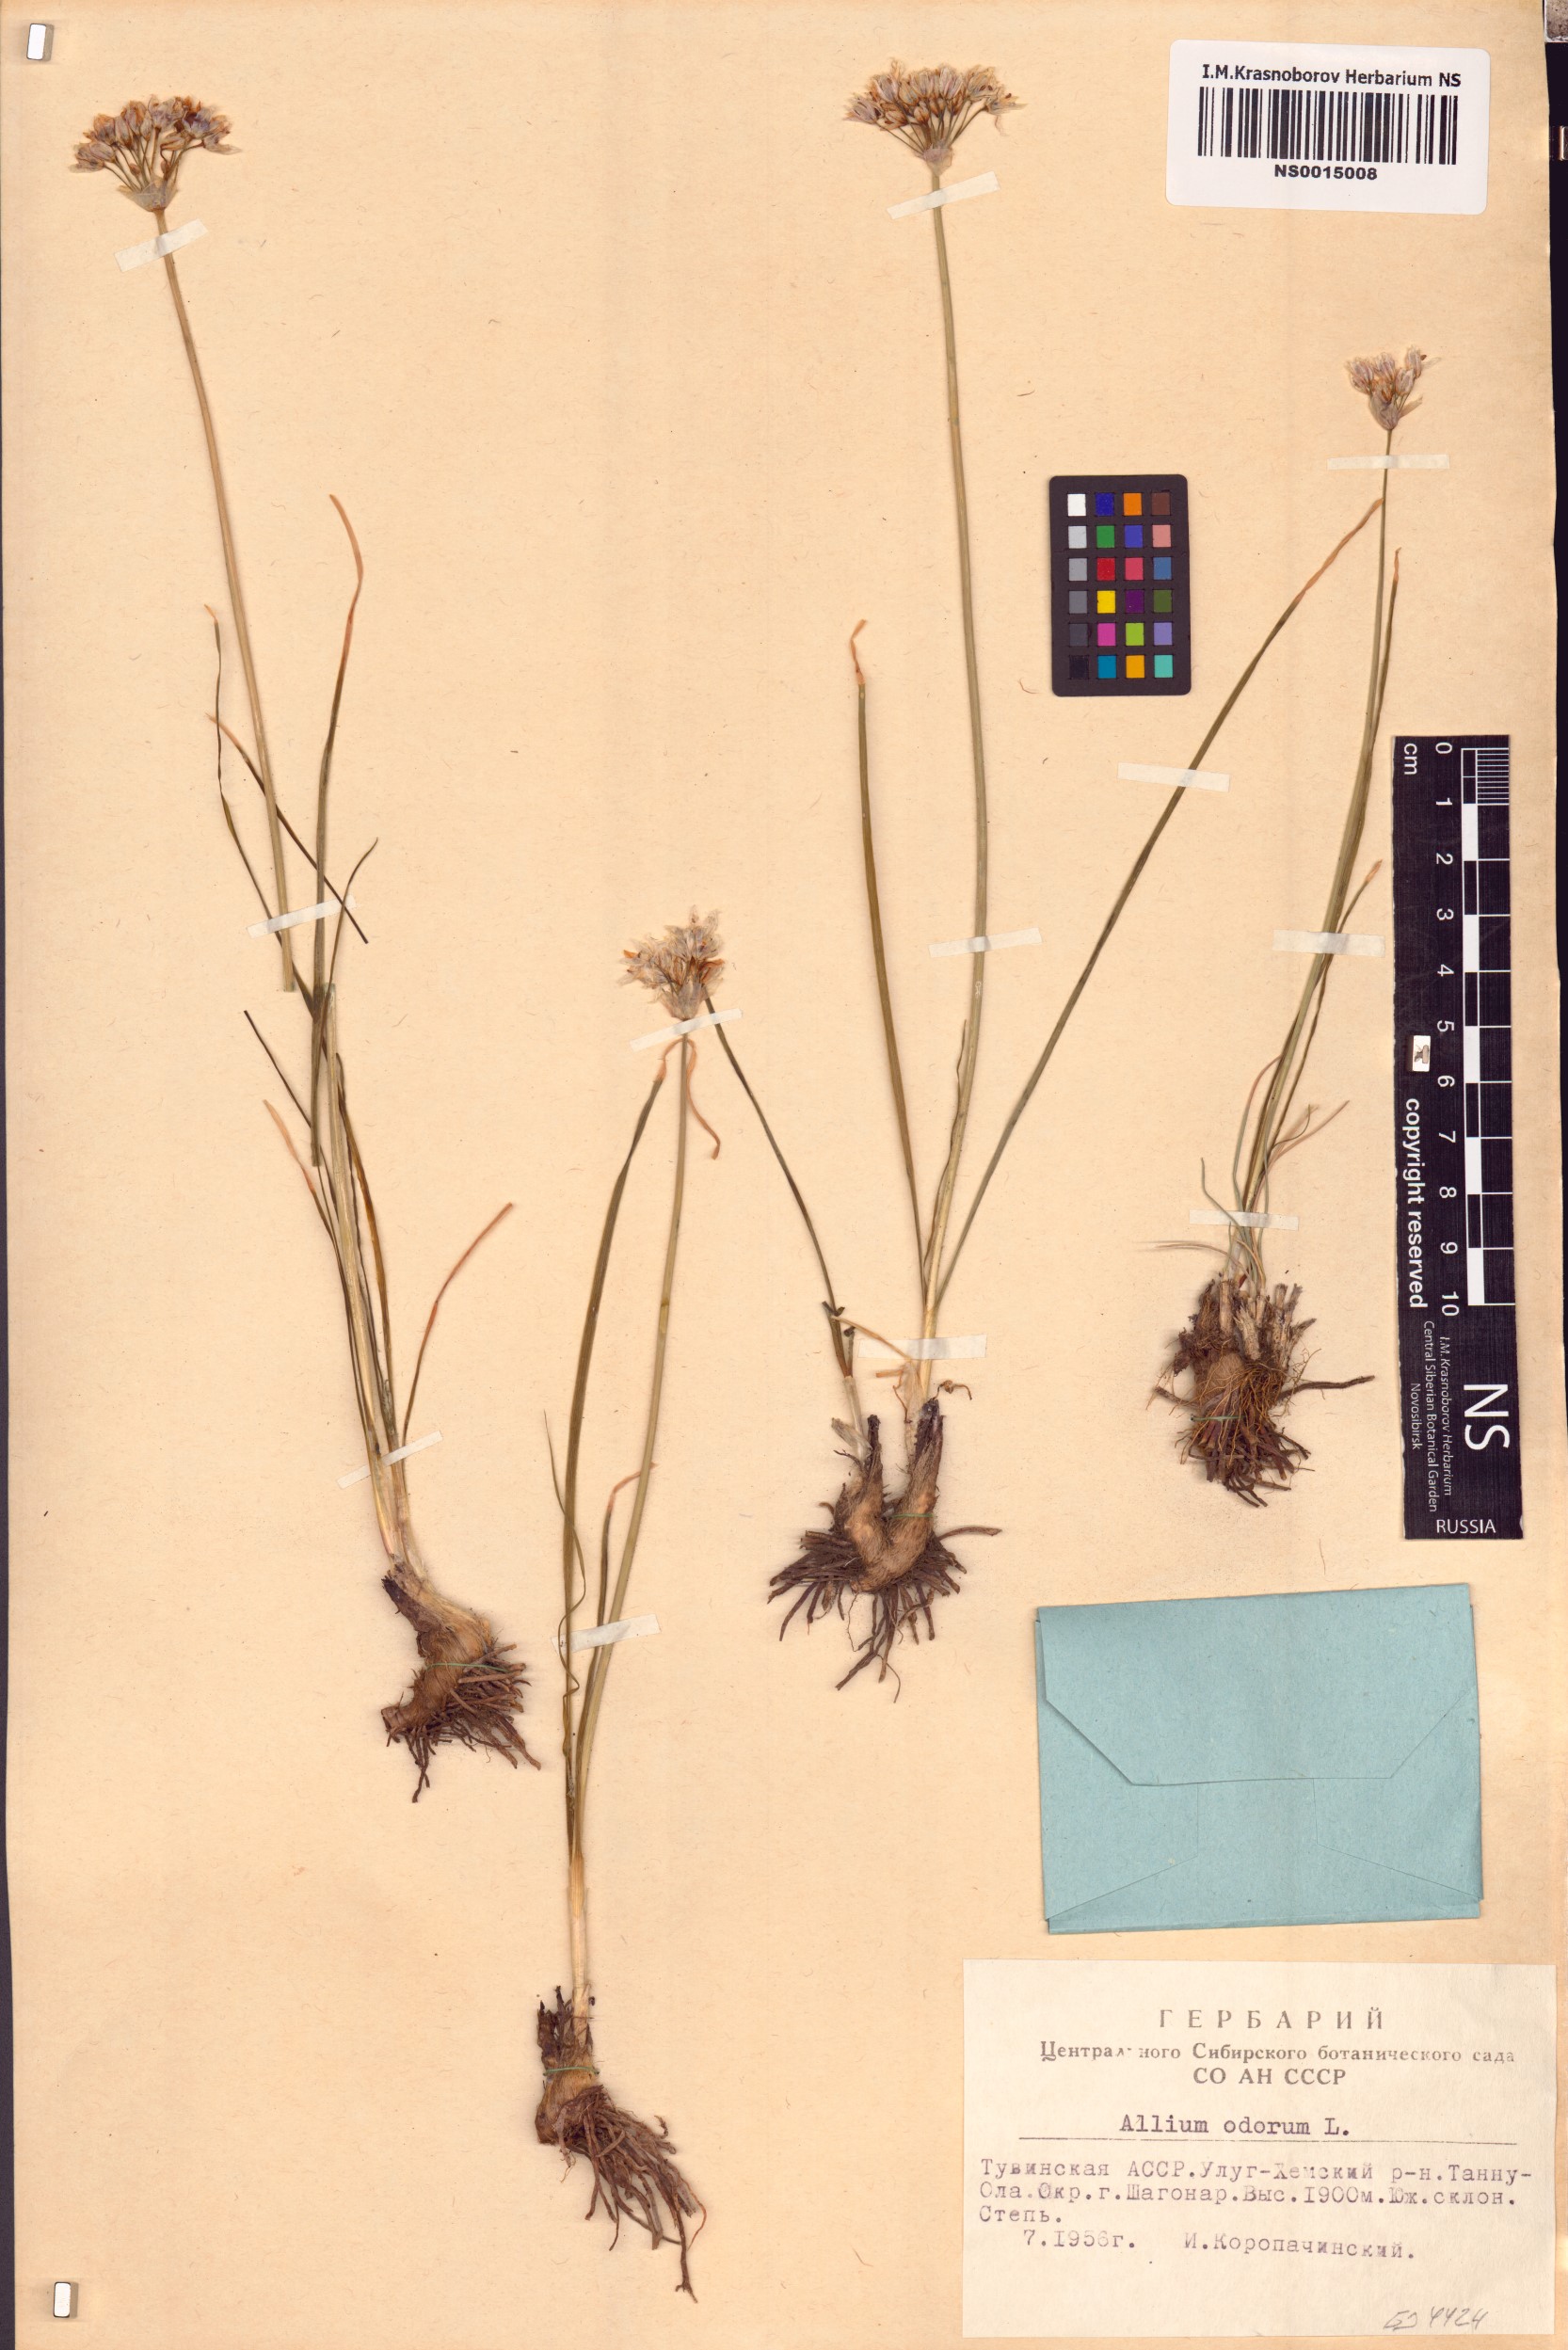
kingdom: Plantae
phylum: Tracheophyta
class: Liliopsida
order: Asparagales
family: Amaryllidaceae
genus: Allium
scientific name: Allium ramosum
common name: Fragrant garlic
